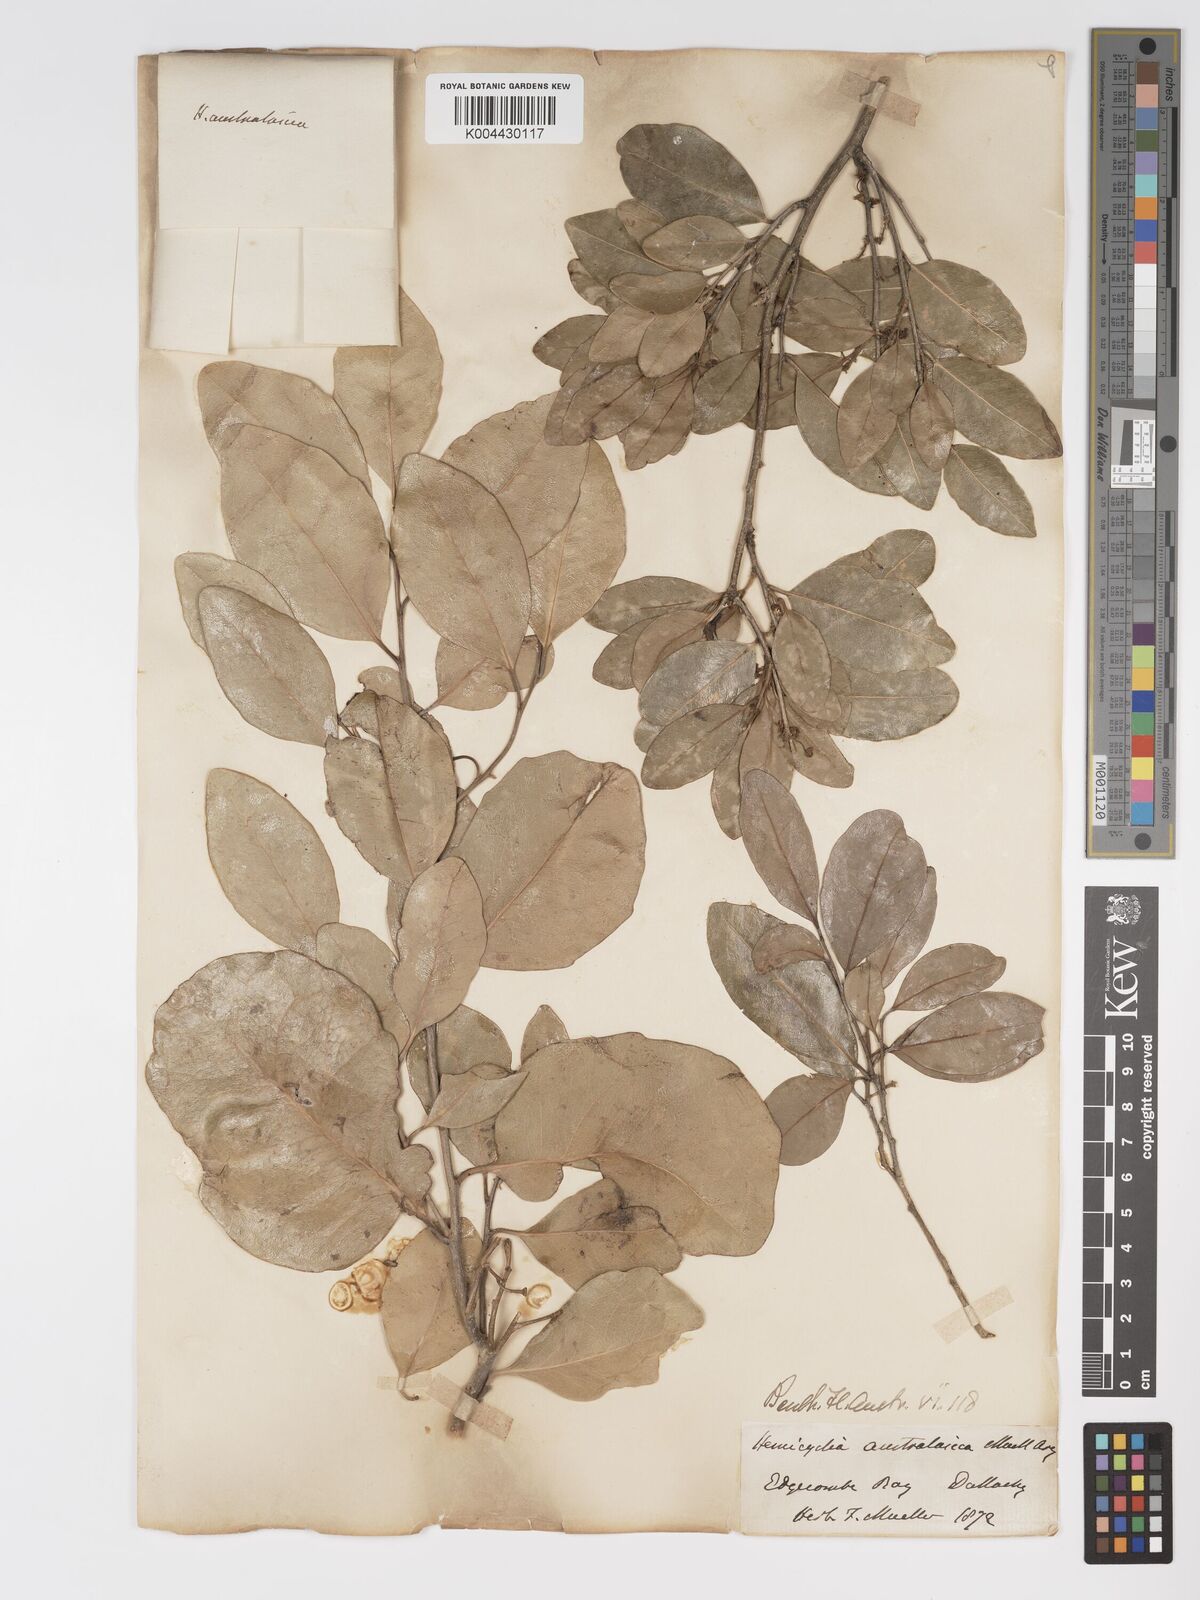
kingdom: Plantae
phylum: Tracheophyta
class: Magnoliopsida
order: Malpighiales
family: Putranjivaceae
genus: Drypetes
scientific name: Drypetes deplanchei
